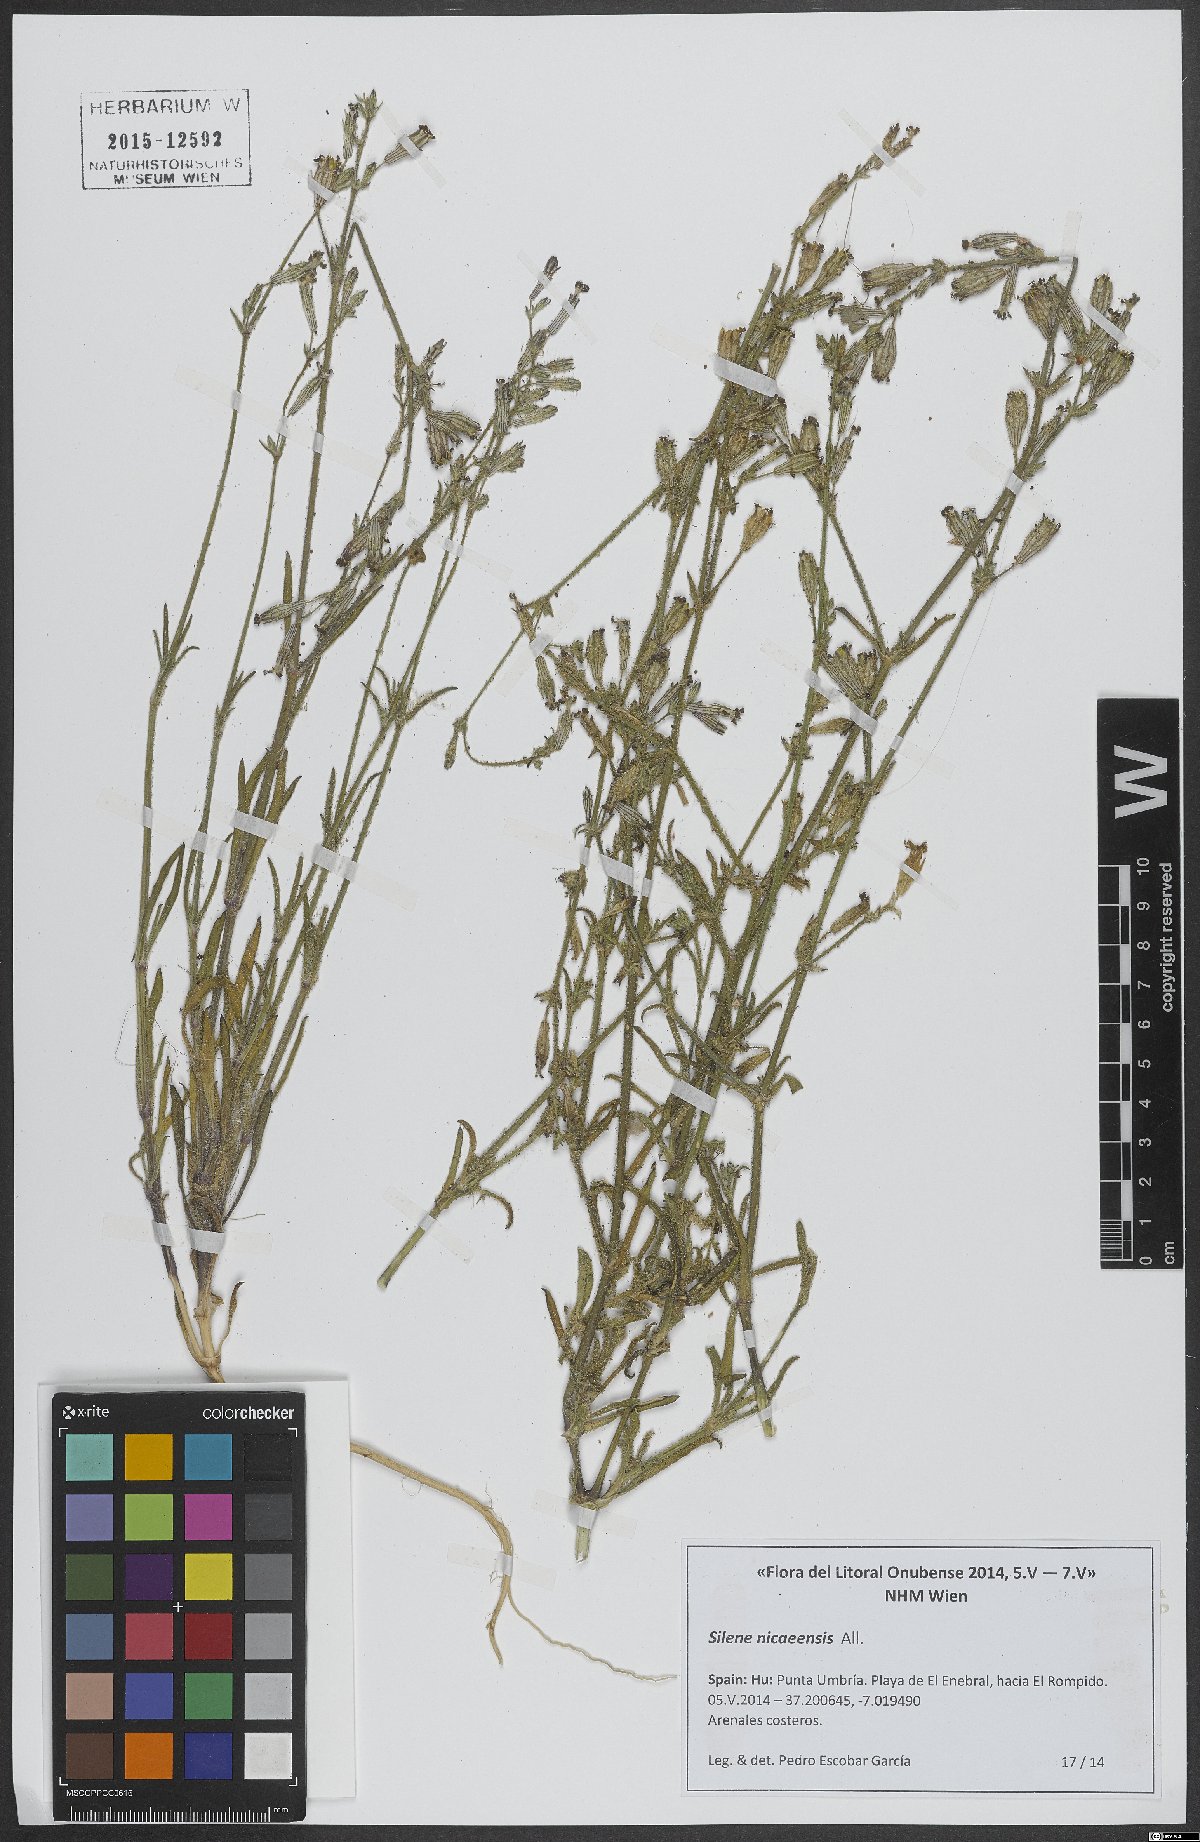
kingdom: Plantae
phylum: Tracheophyta
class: Magnoliopsida
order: Caryophyllales
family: Caryophyllaceae
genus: Silene
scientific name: Silene nicaeensis
